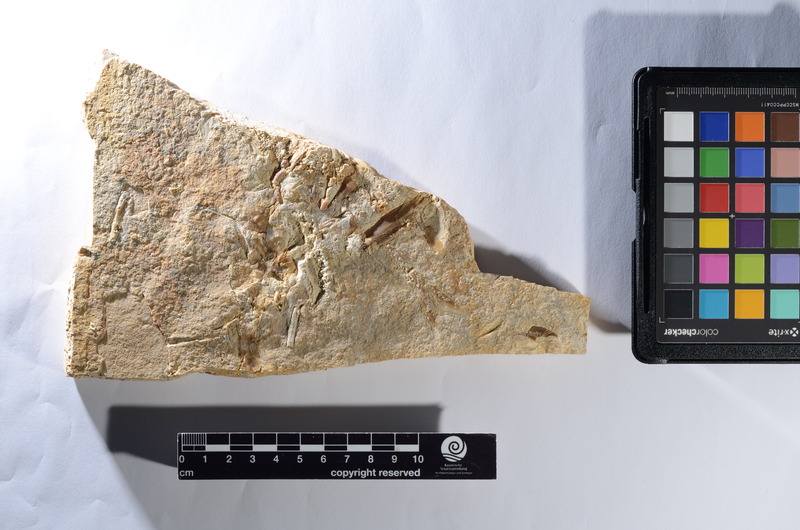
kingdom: Animalia
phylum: Chordata
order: Amiiformes
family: Caturidae
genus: Caturus
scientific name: Caturus
